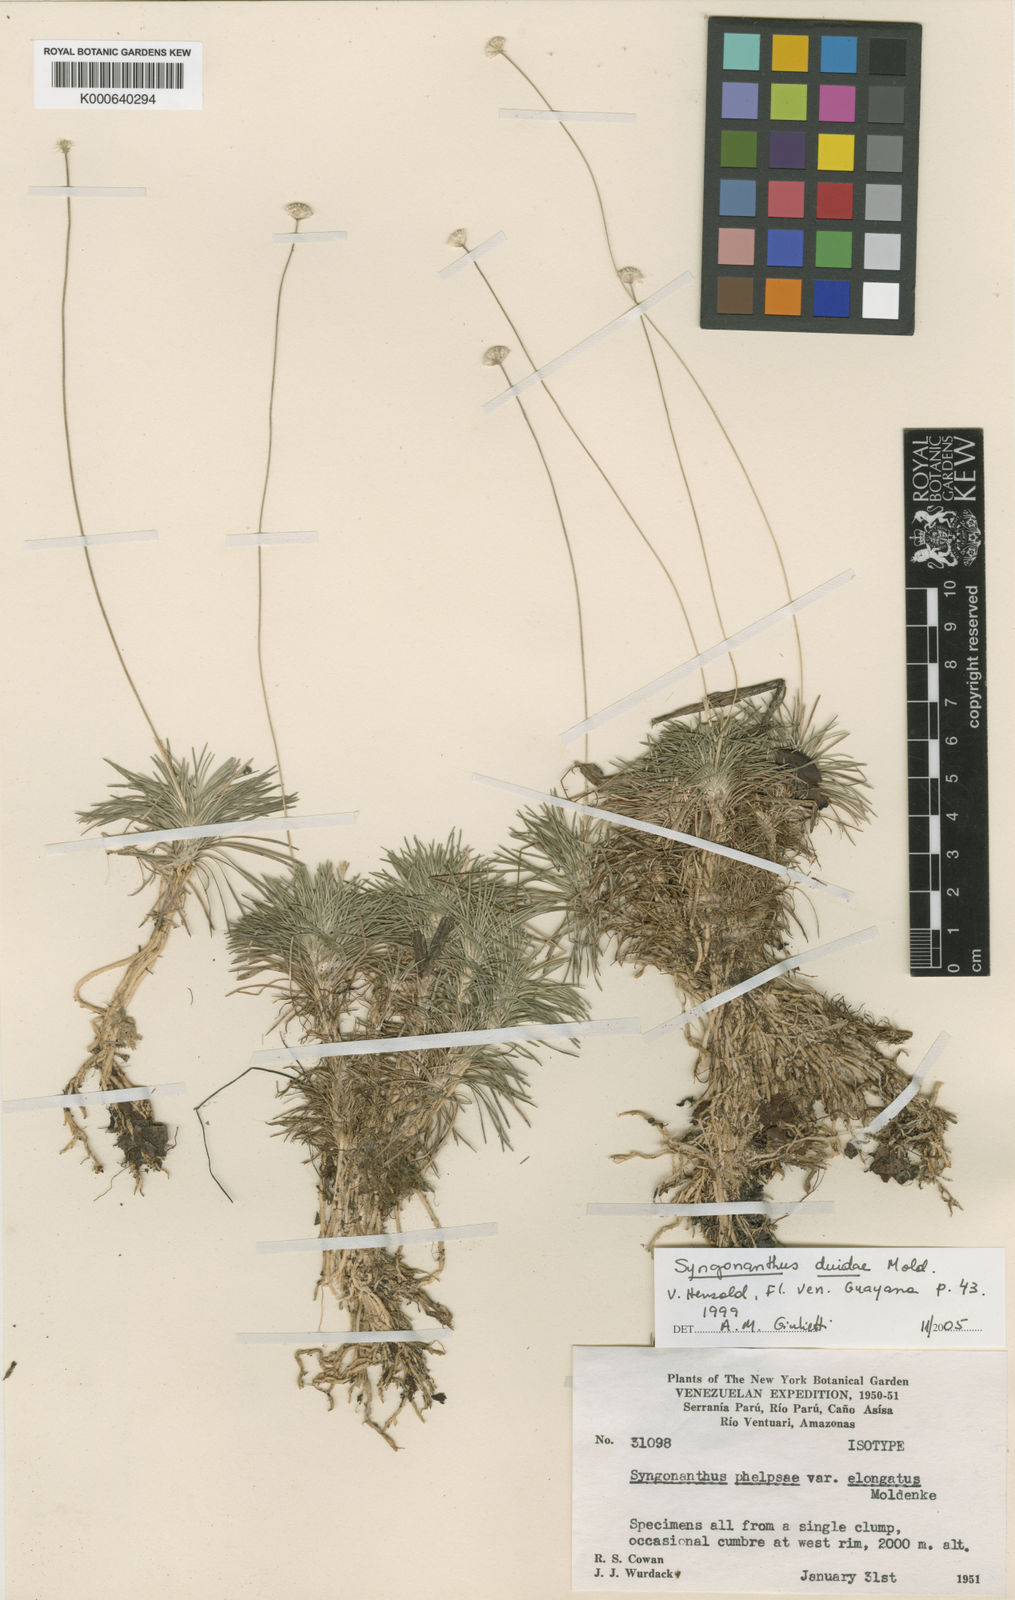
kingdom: Plantae
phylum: Tracheophyta
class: Liliopsida
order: Poales
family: Eriocaulaceae
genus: Syngonanthus
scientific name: Syngonanthus duidae
